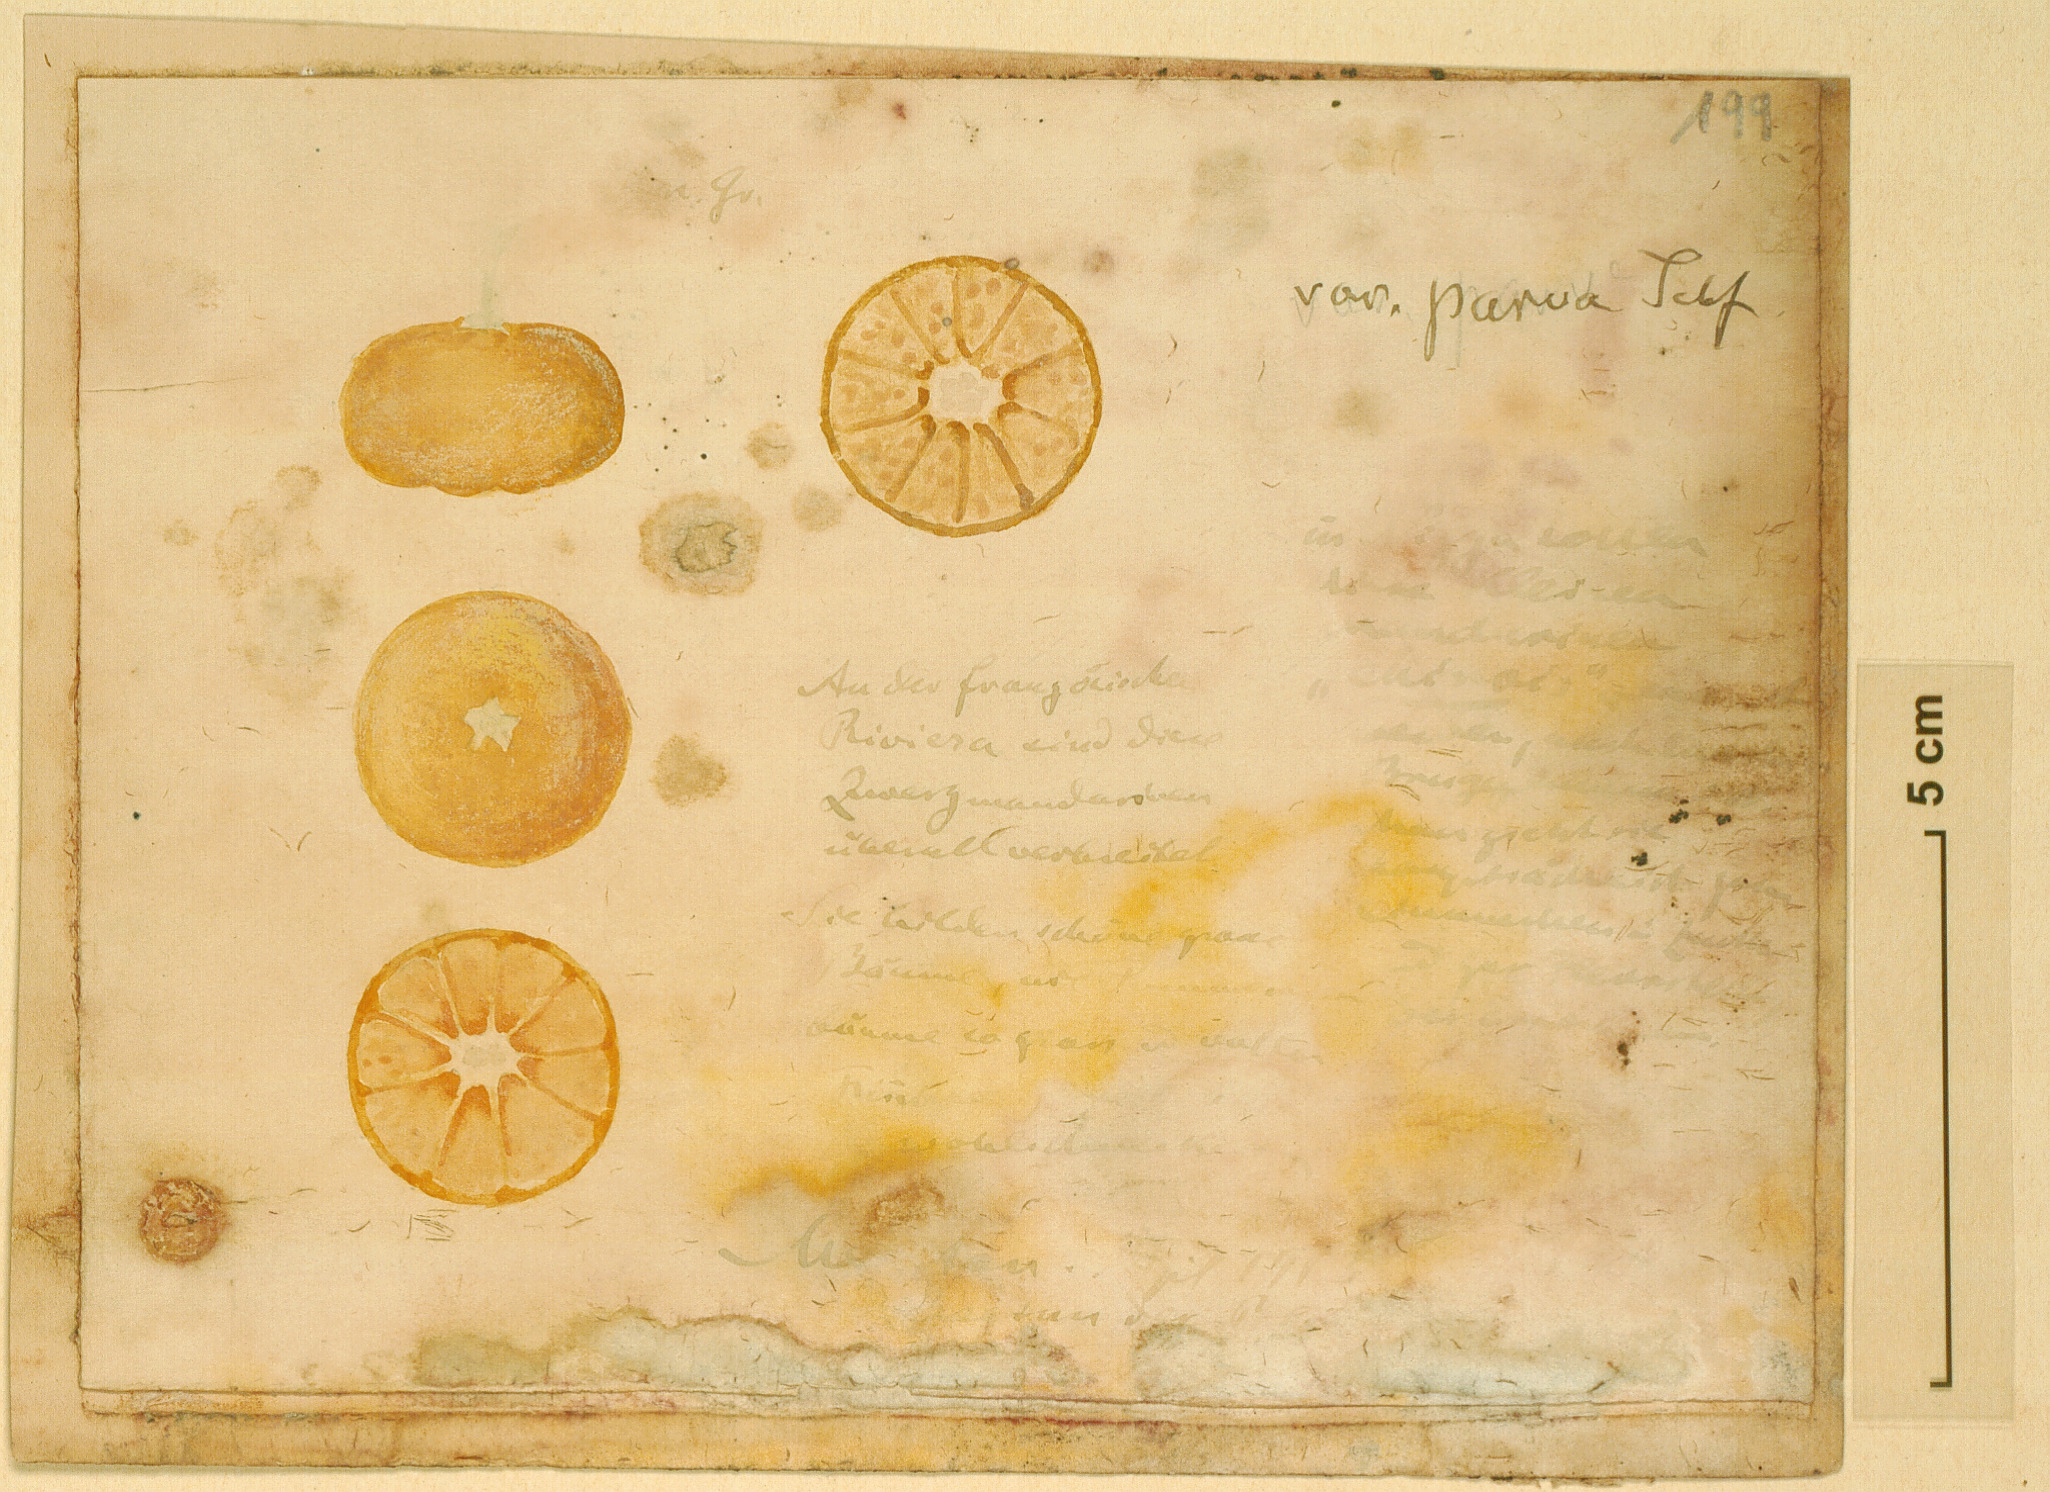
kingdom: Plantae
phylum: Tracheophyta
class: Magnoliopsida
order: Sapindales
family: Rutaceae
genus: Citrus
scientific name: Citrus
